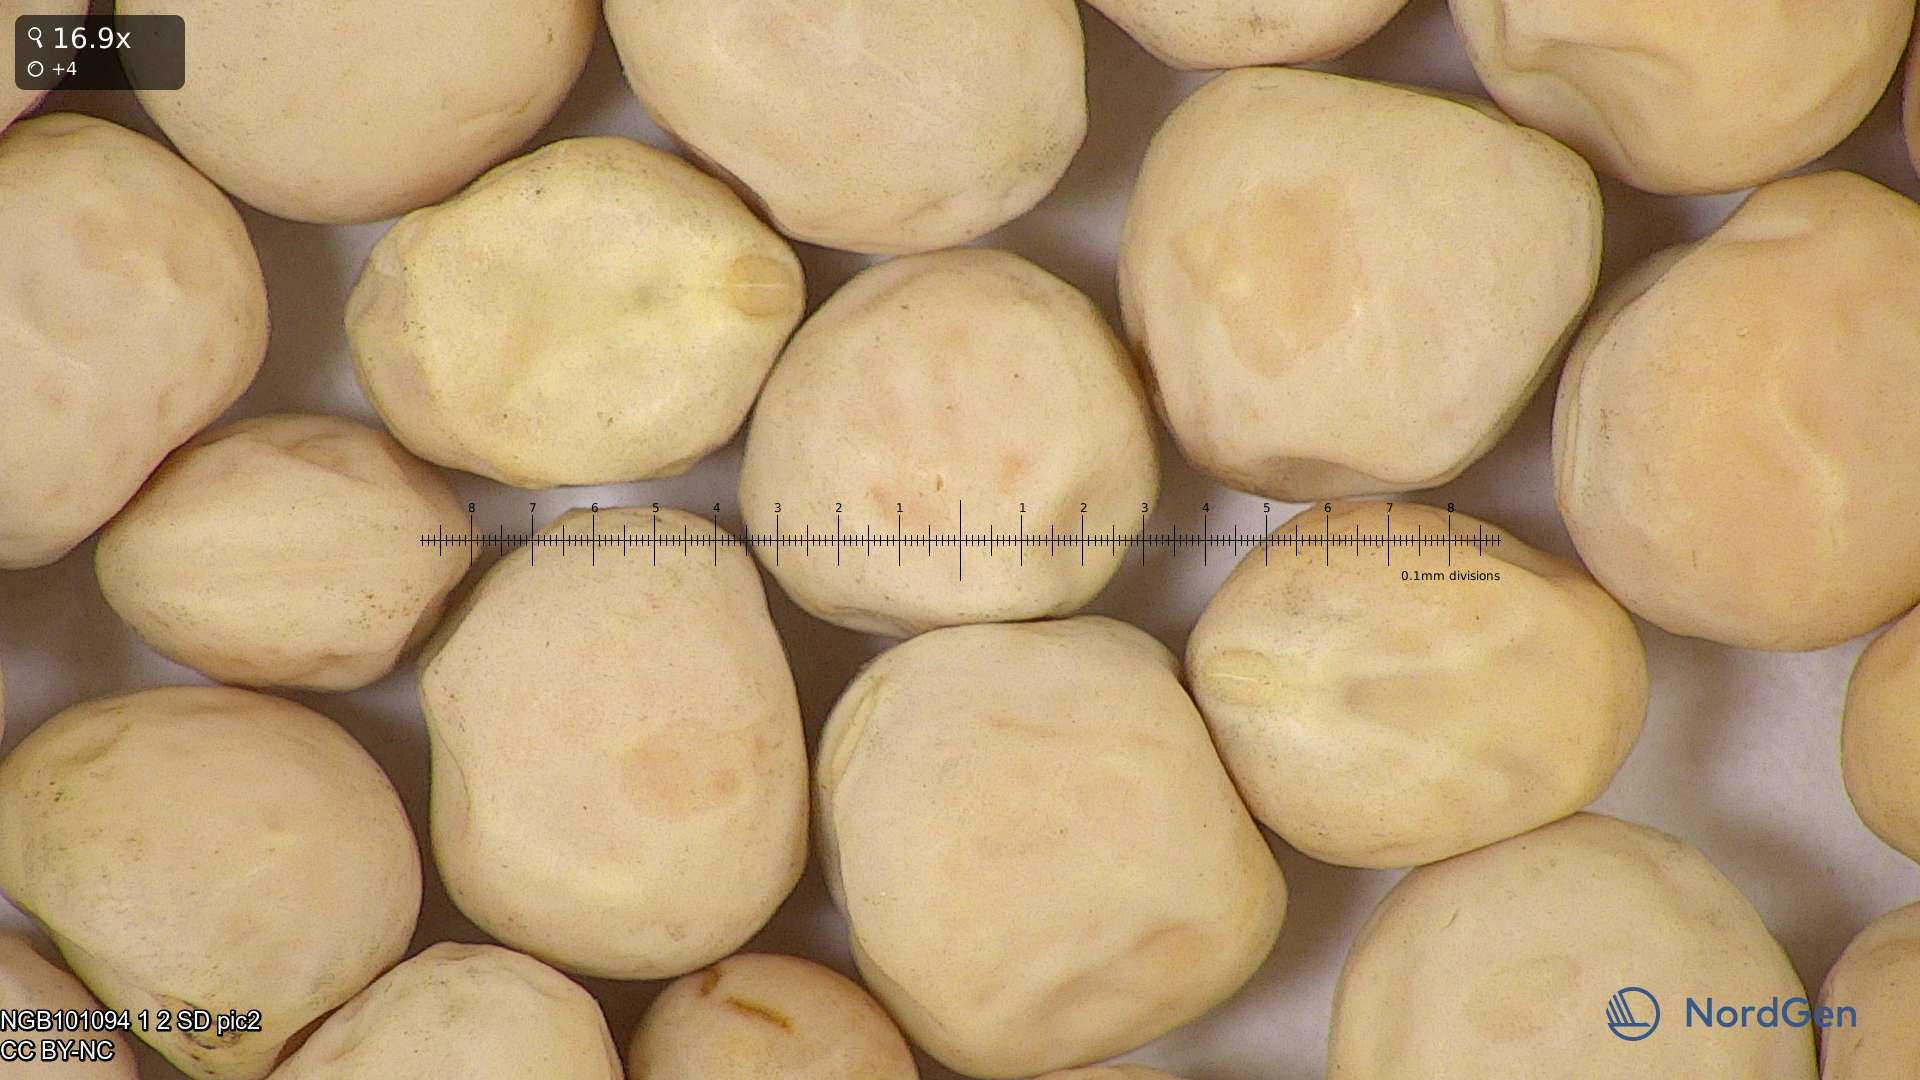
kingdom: Plantae
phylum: Tracheophyta
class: Magnoliopsida
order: Fabales
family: Fabaceae
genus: Lathyrus
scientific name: Lathyrus oleraceus
